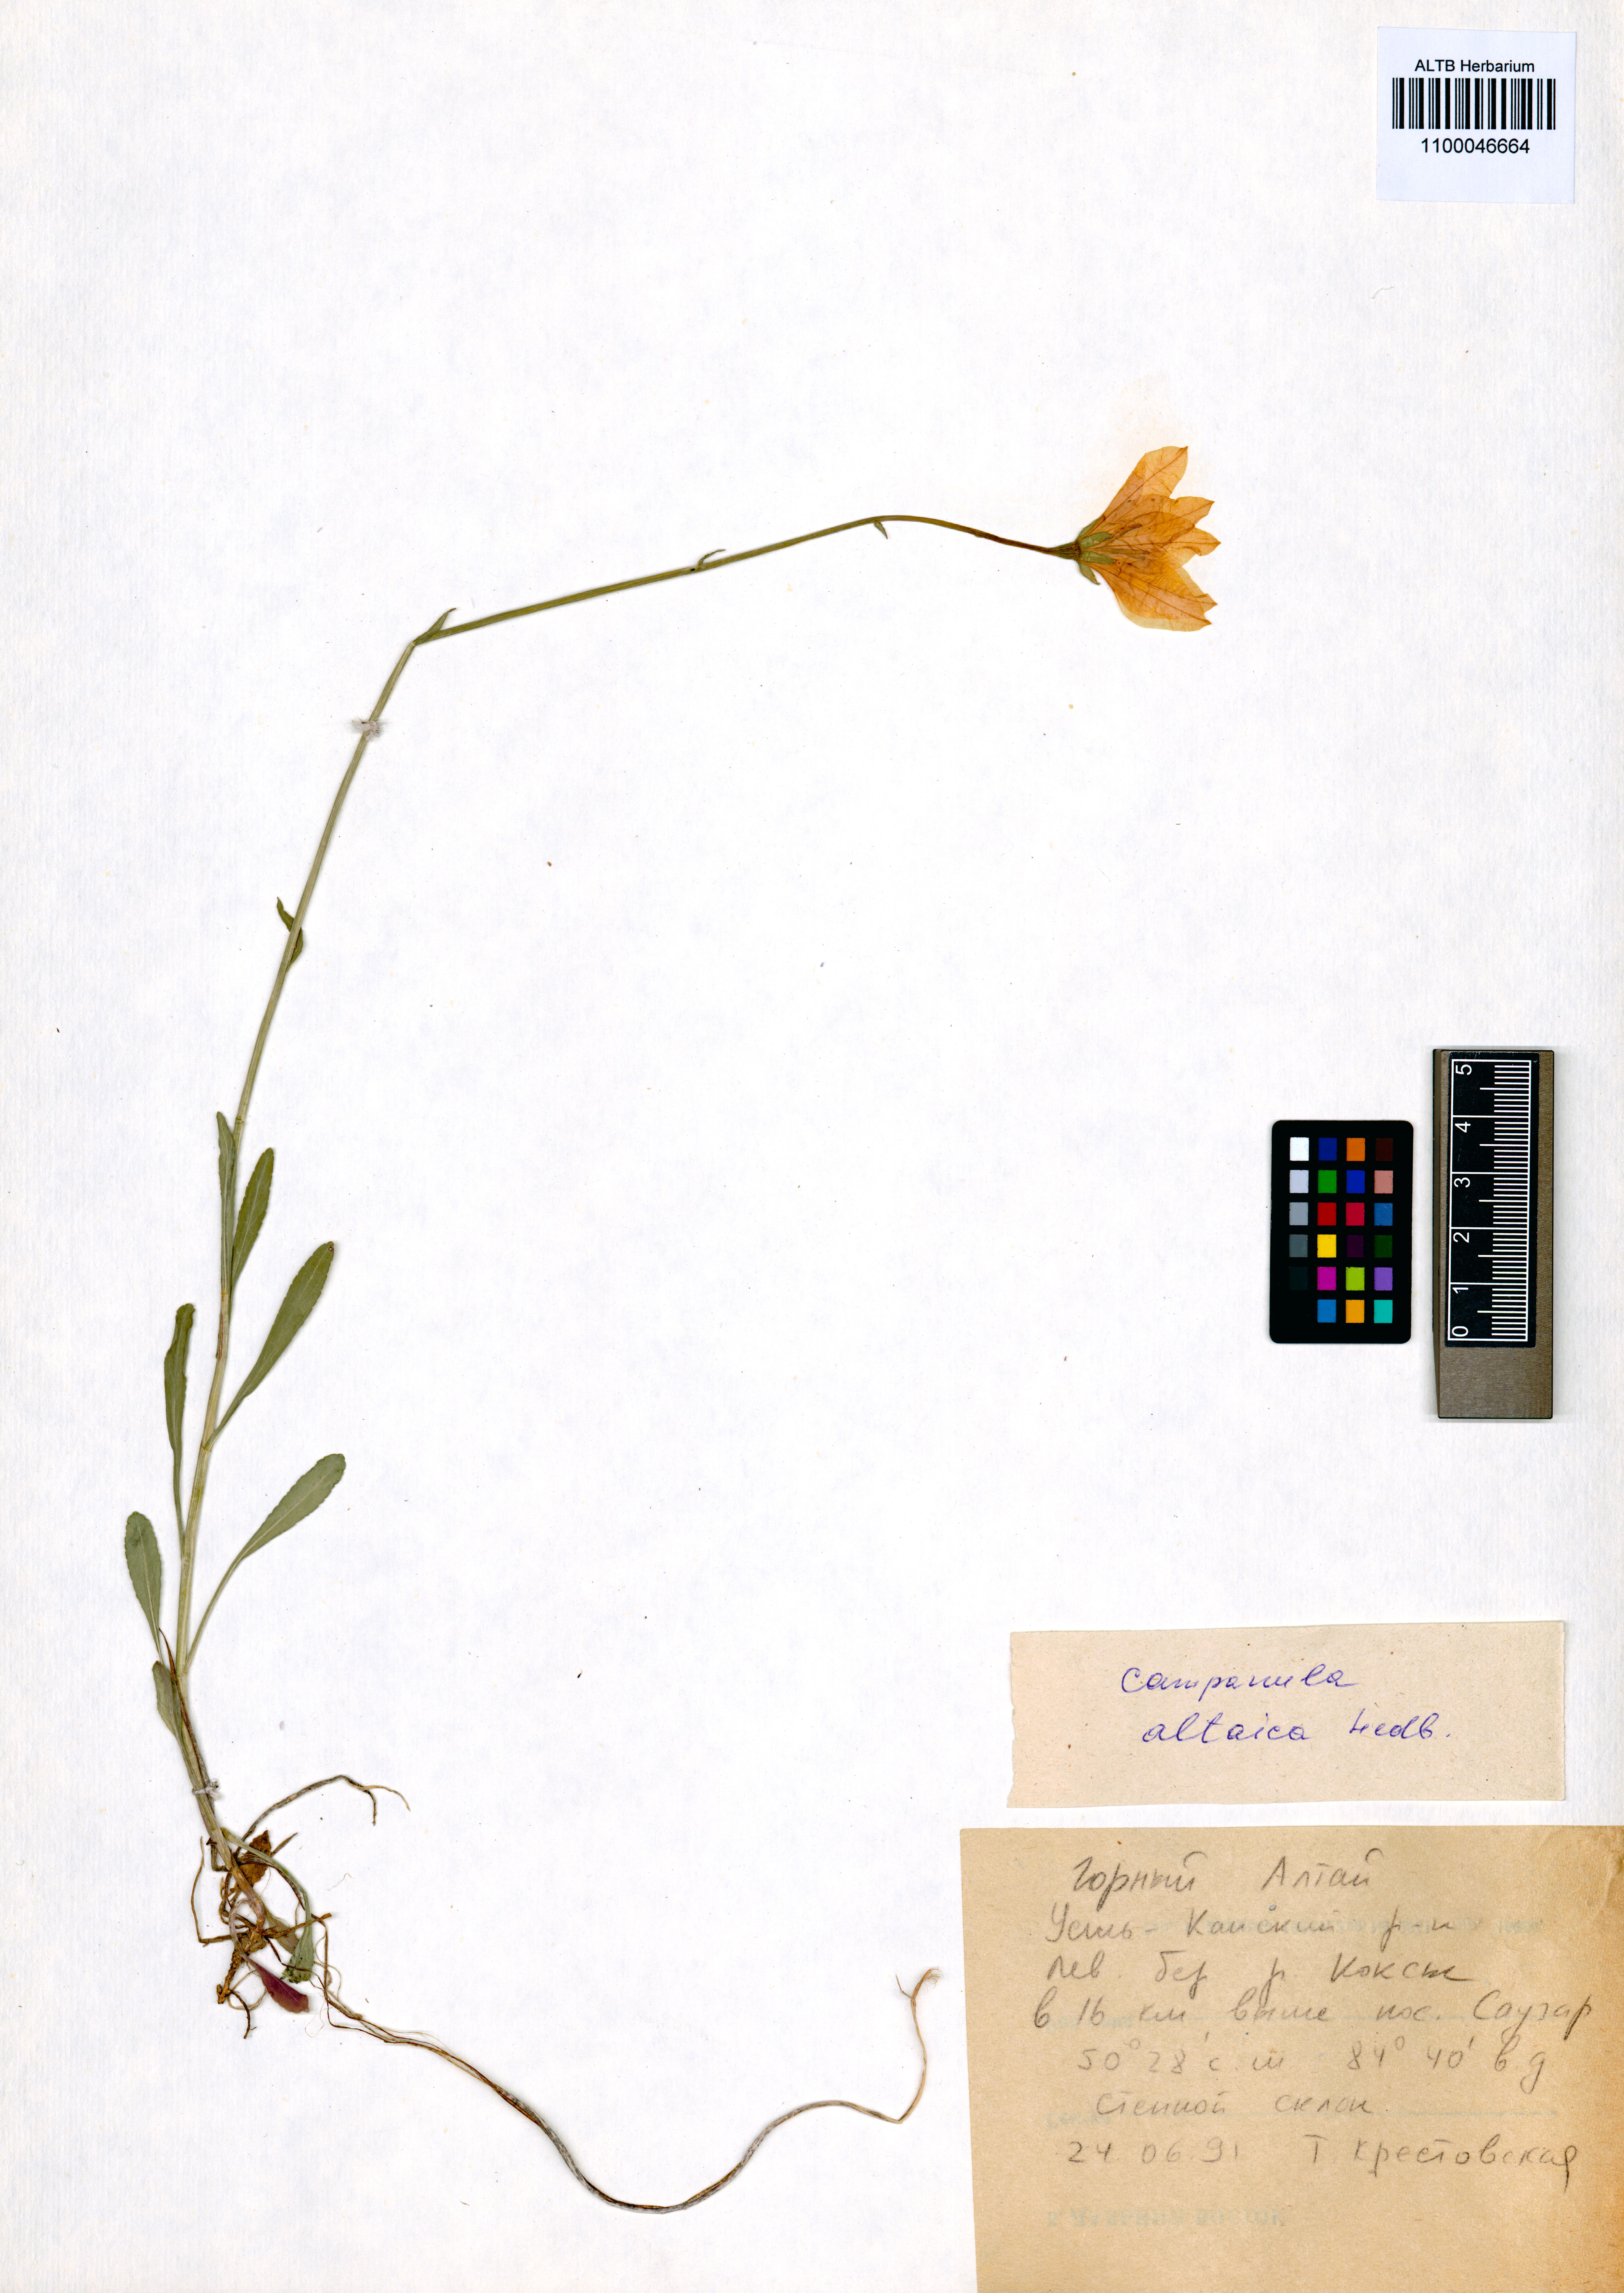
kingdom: Plantae
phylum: Tracheophyta
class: Magnoliopsida
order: Asterales
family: Campanulaceae
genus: Campanula
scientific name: Campanula stevenii
